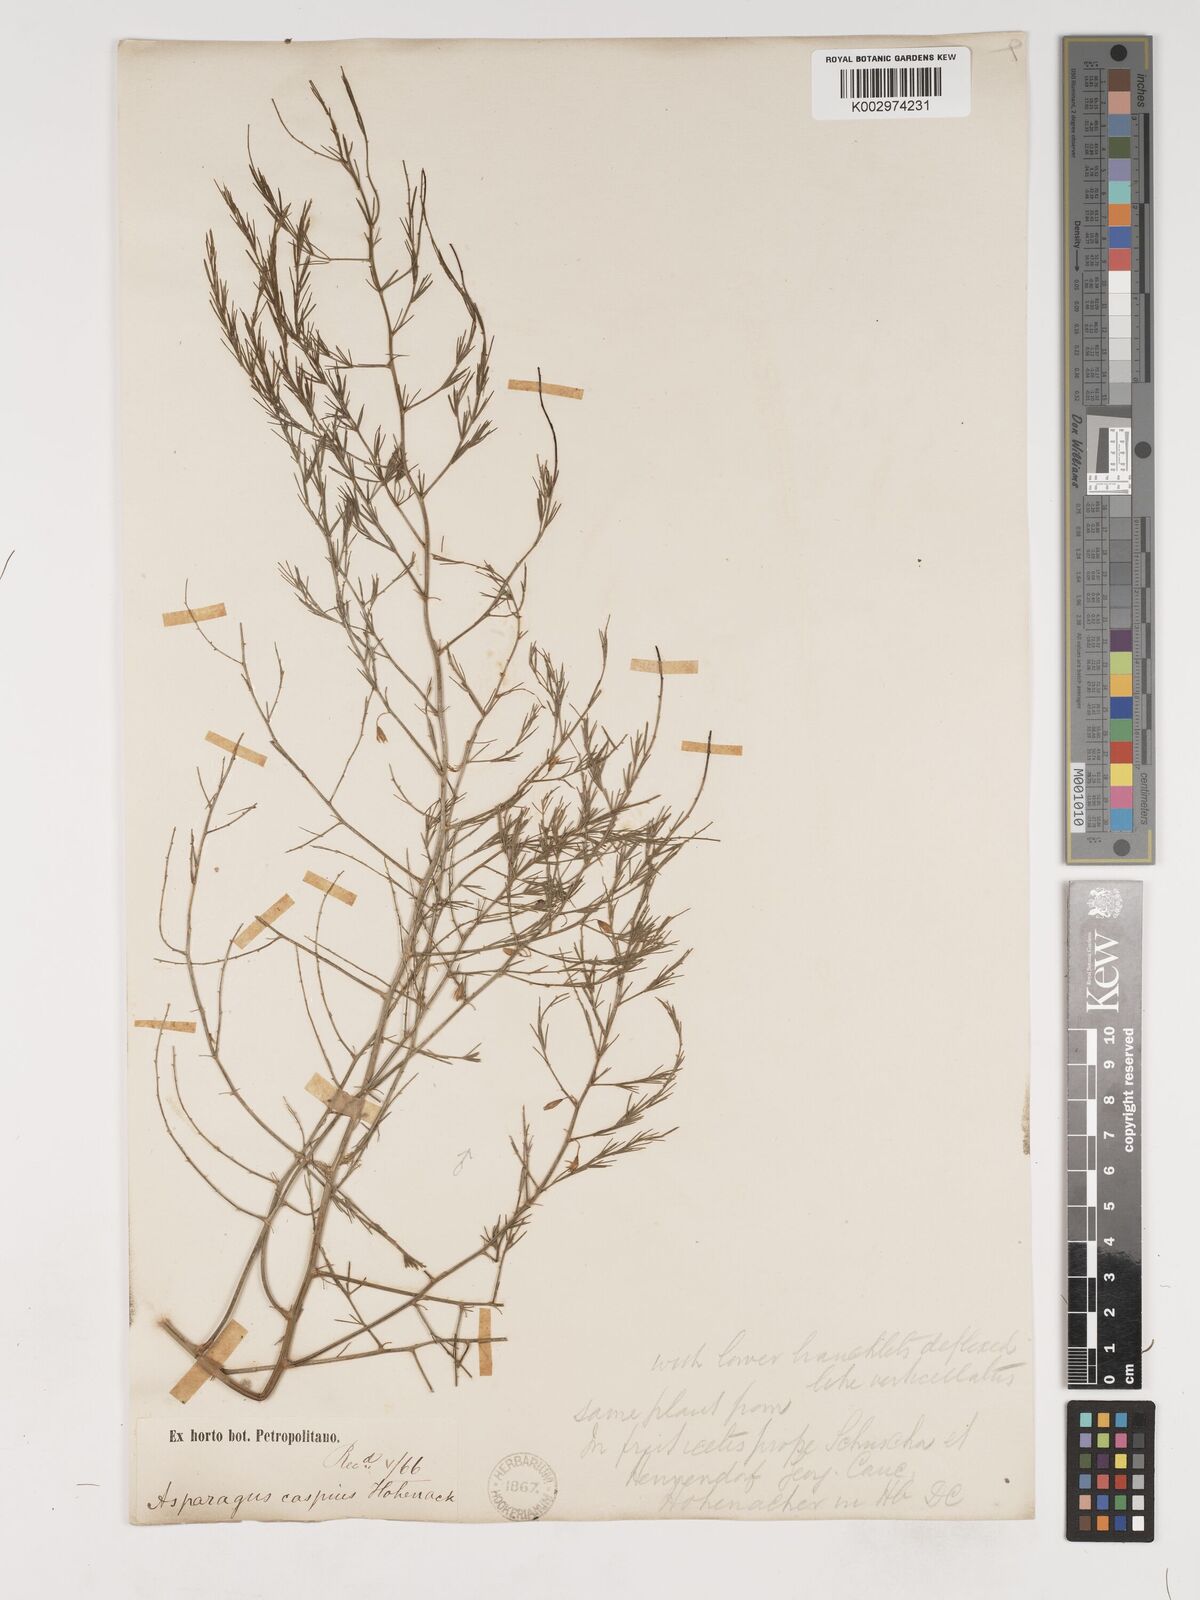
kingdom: Plantae
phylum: Tracheophyta
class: Liliopsida
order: Asparagales
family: Asparagaceae
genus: Asparagus
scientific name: Asparagus officinalis
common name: Garden asparagus
